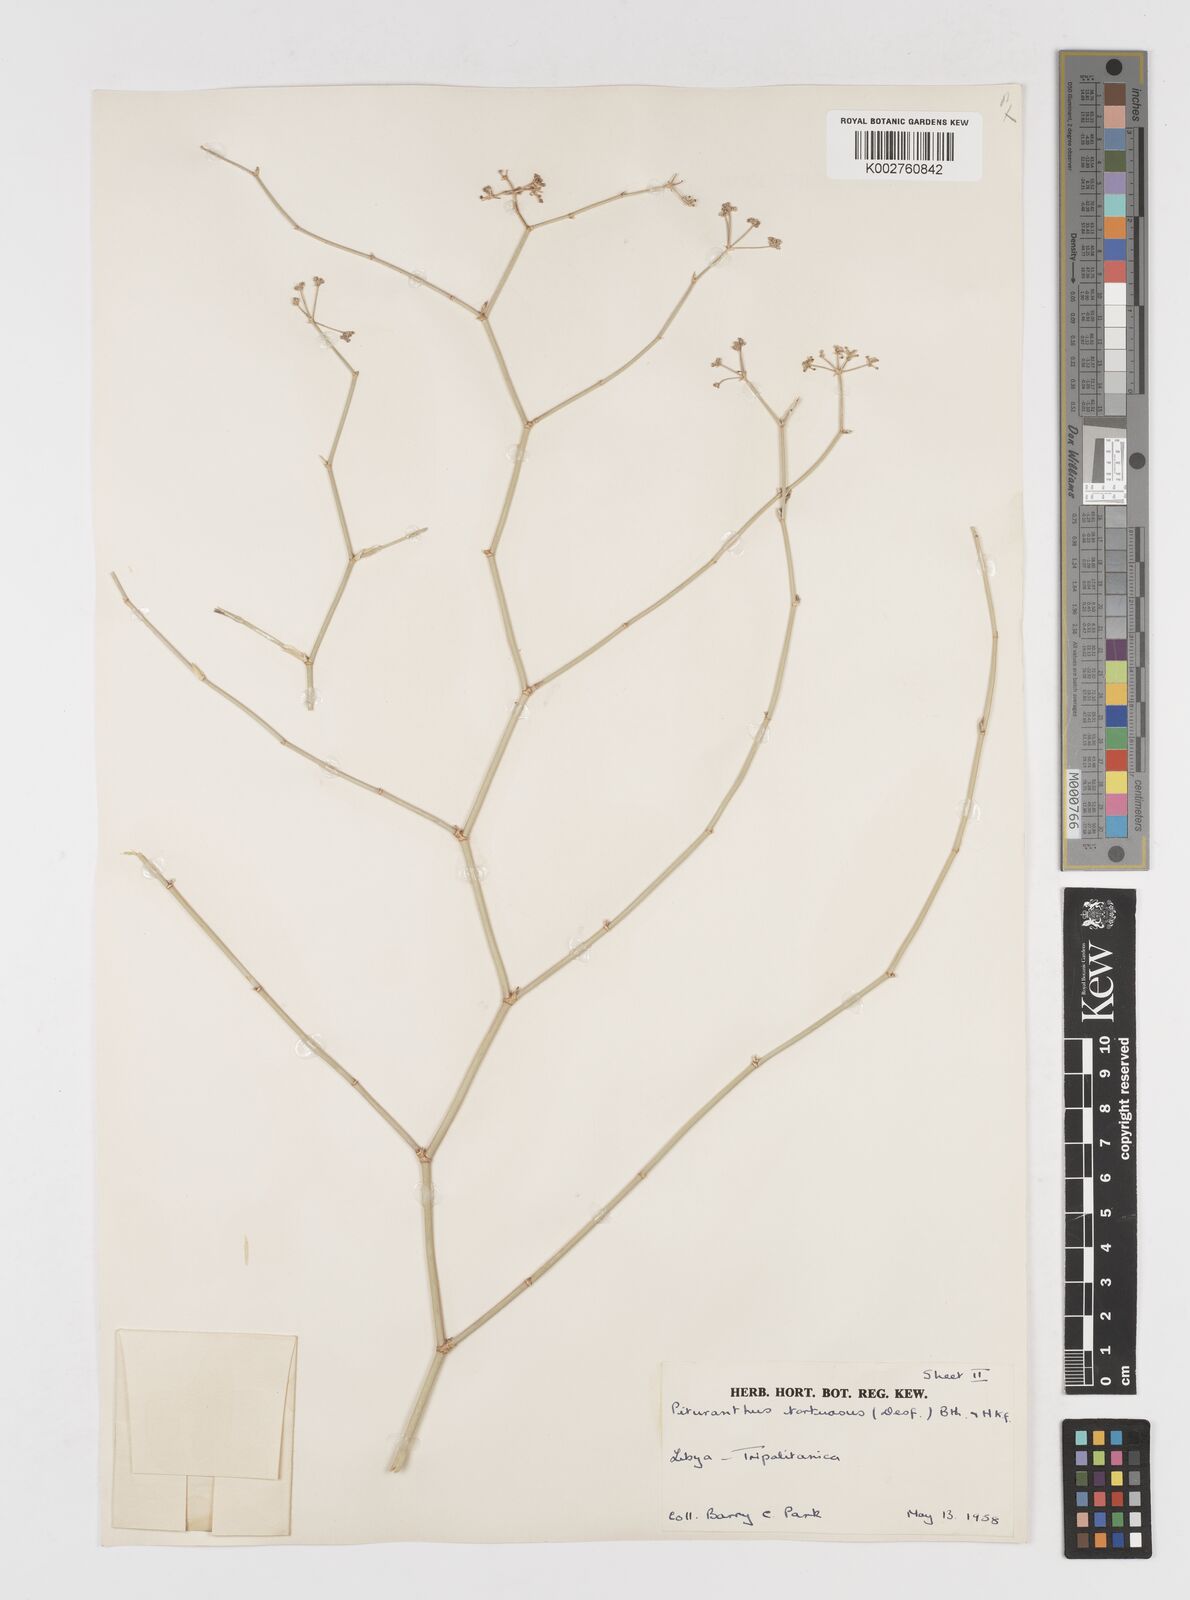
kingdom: Plantae
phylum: Tracheophyta
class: Magnoliopsida
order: Apiales
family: Apiaceae
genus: Deverra
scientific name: Deverra tortuosa
